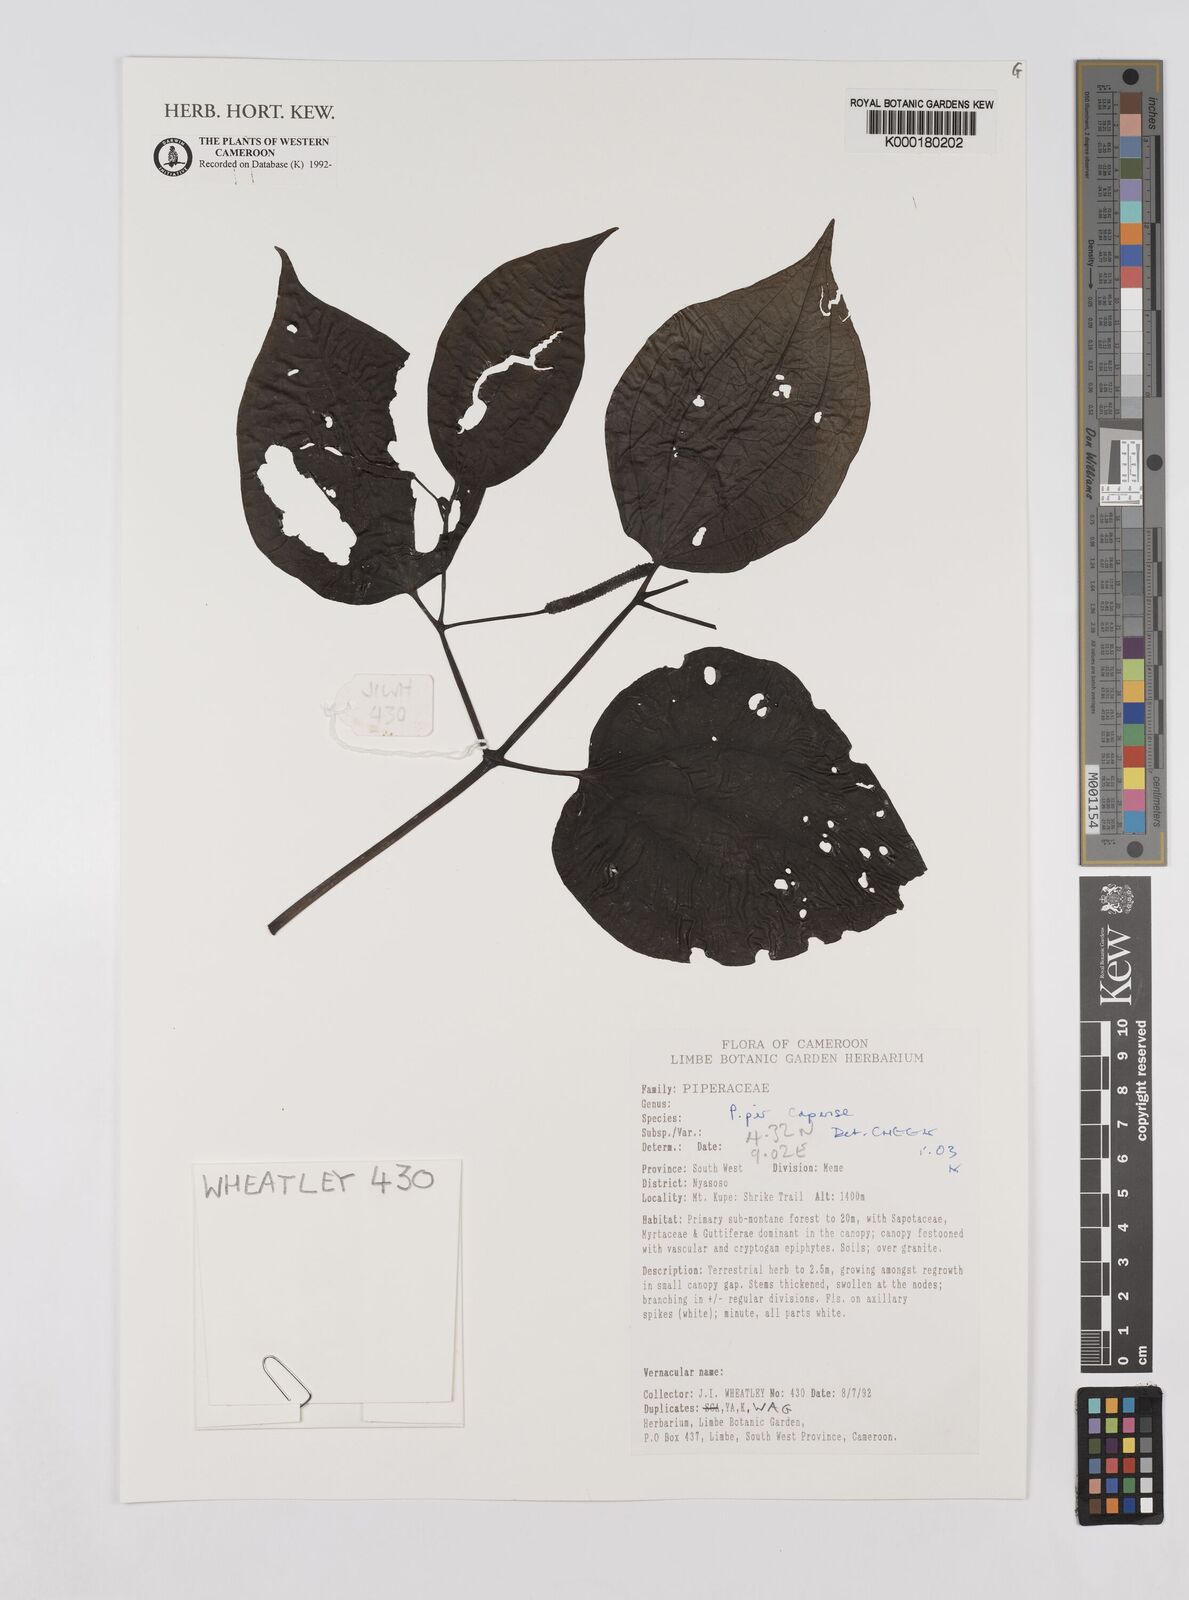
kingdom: Plantae
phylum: Tracheophyta
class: Magnoliopsida
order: Piperales
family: Piperaceae
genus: Piper
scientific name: Piper capense
